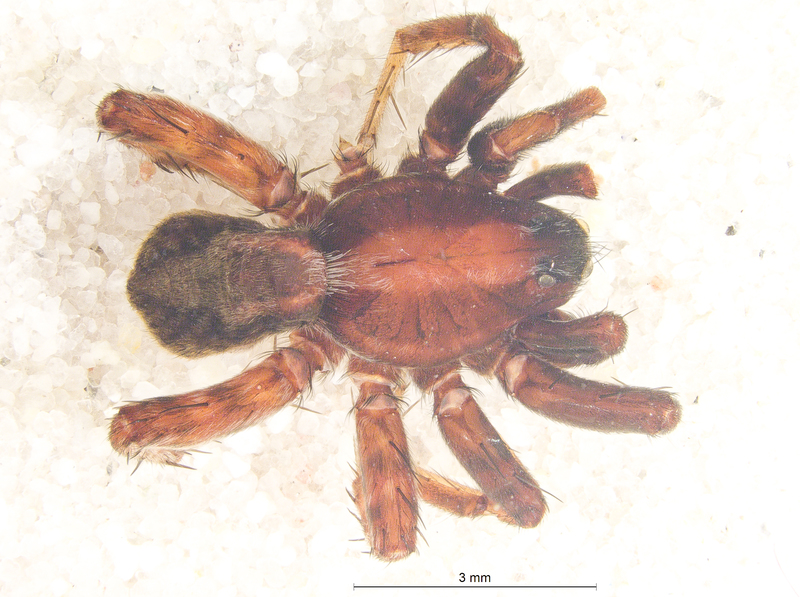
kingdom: Animalia
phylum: Arthropoda
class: Arachnida
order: Araneae
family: Lycosidae
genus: Alopecosa
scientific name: Alopecosa pulverulenta
